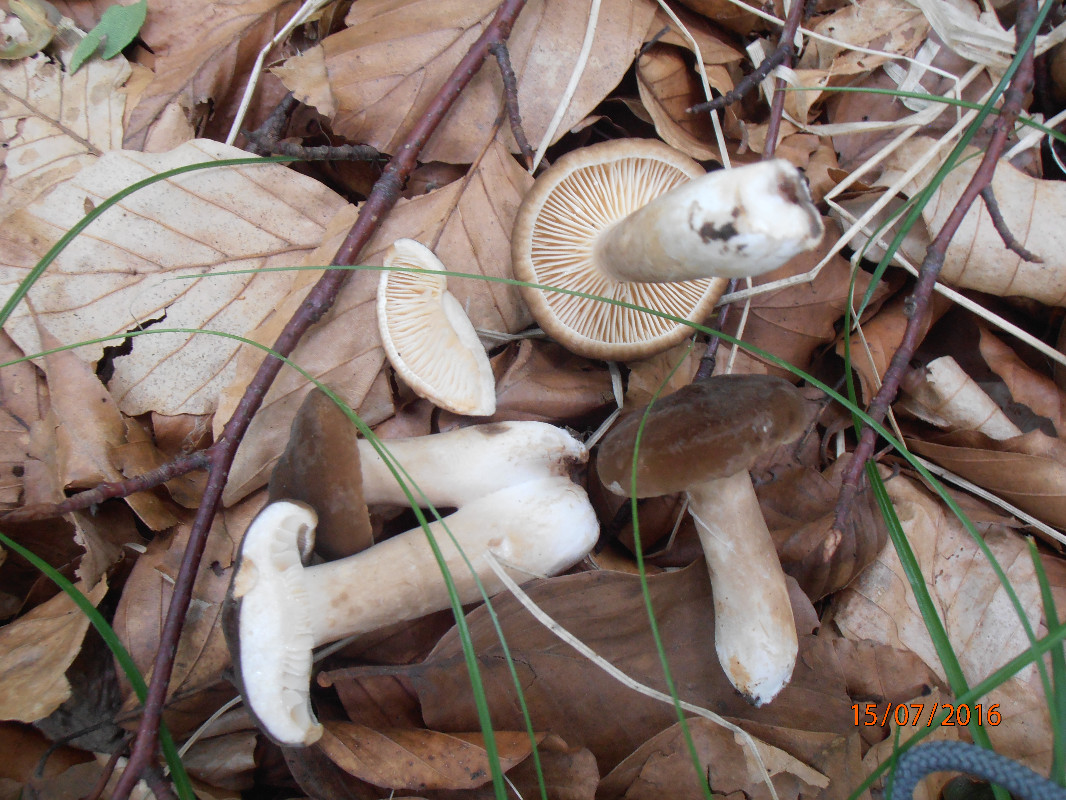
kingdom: Fungi
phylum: Basidiomycota
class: Agaricomycetes
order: Russulales
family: Russulaceae
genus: Lactarius
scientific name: Lactarius
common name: mælkehat
